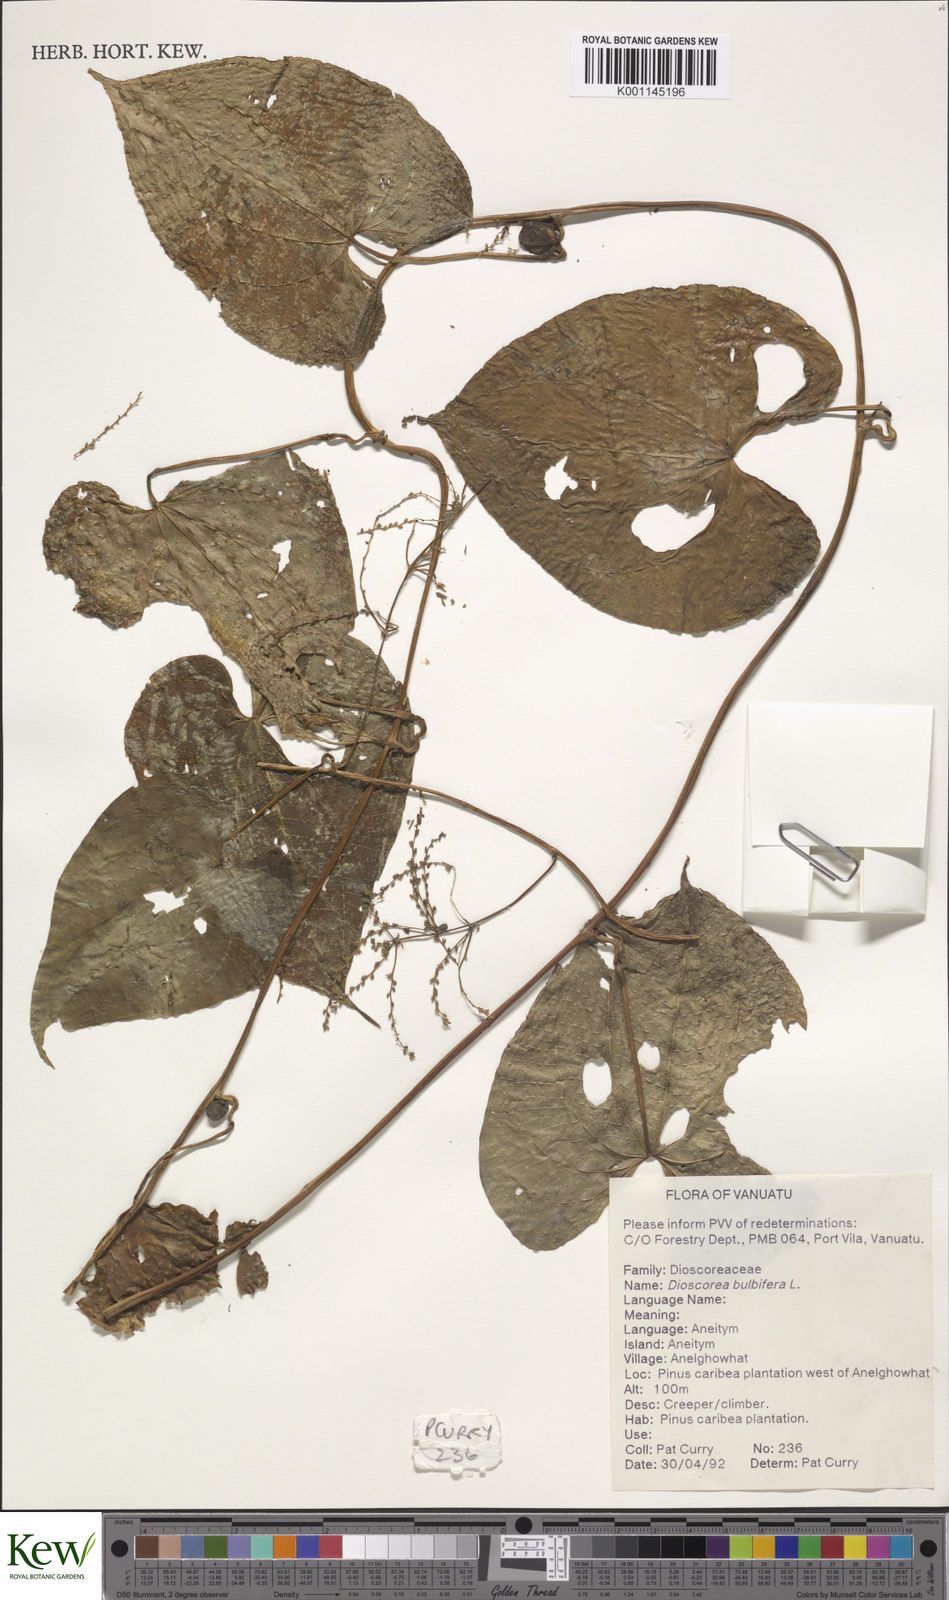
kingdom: Plantae
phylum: Tracheophyta
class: Liliopsida
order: Dioscoreales
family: Dioscoreaceae
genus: Dioscorea
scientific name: Dioscorea bulbifera
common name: Air yam
